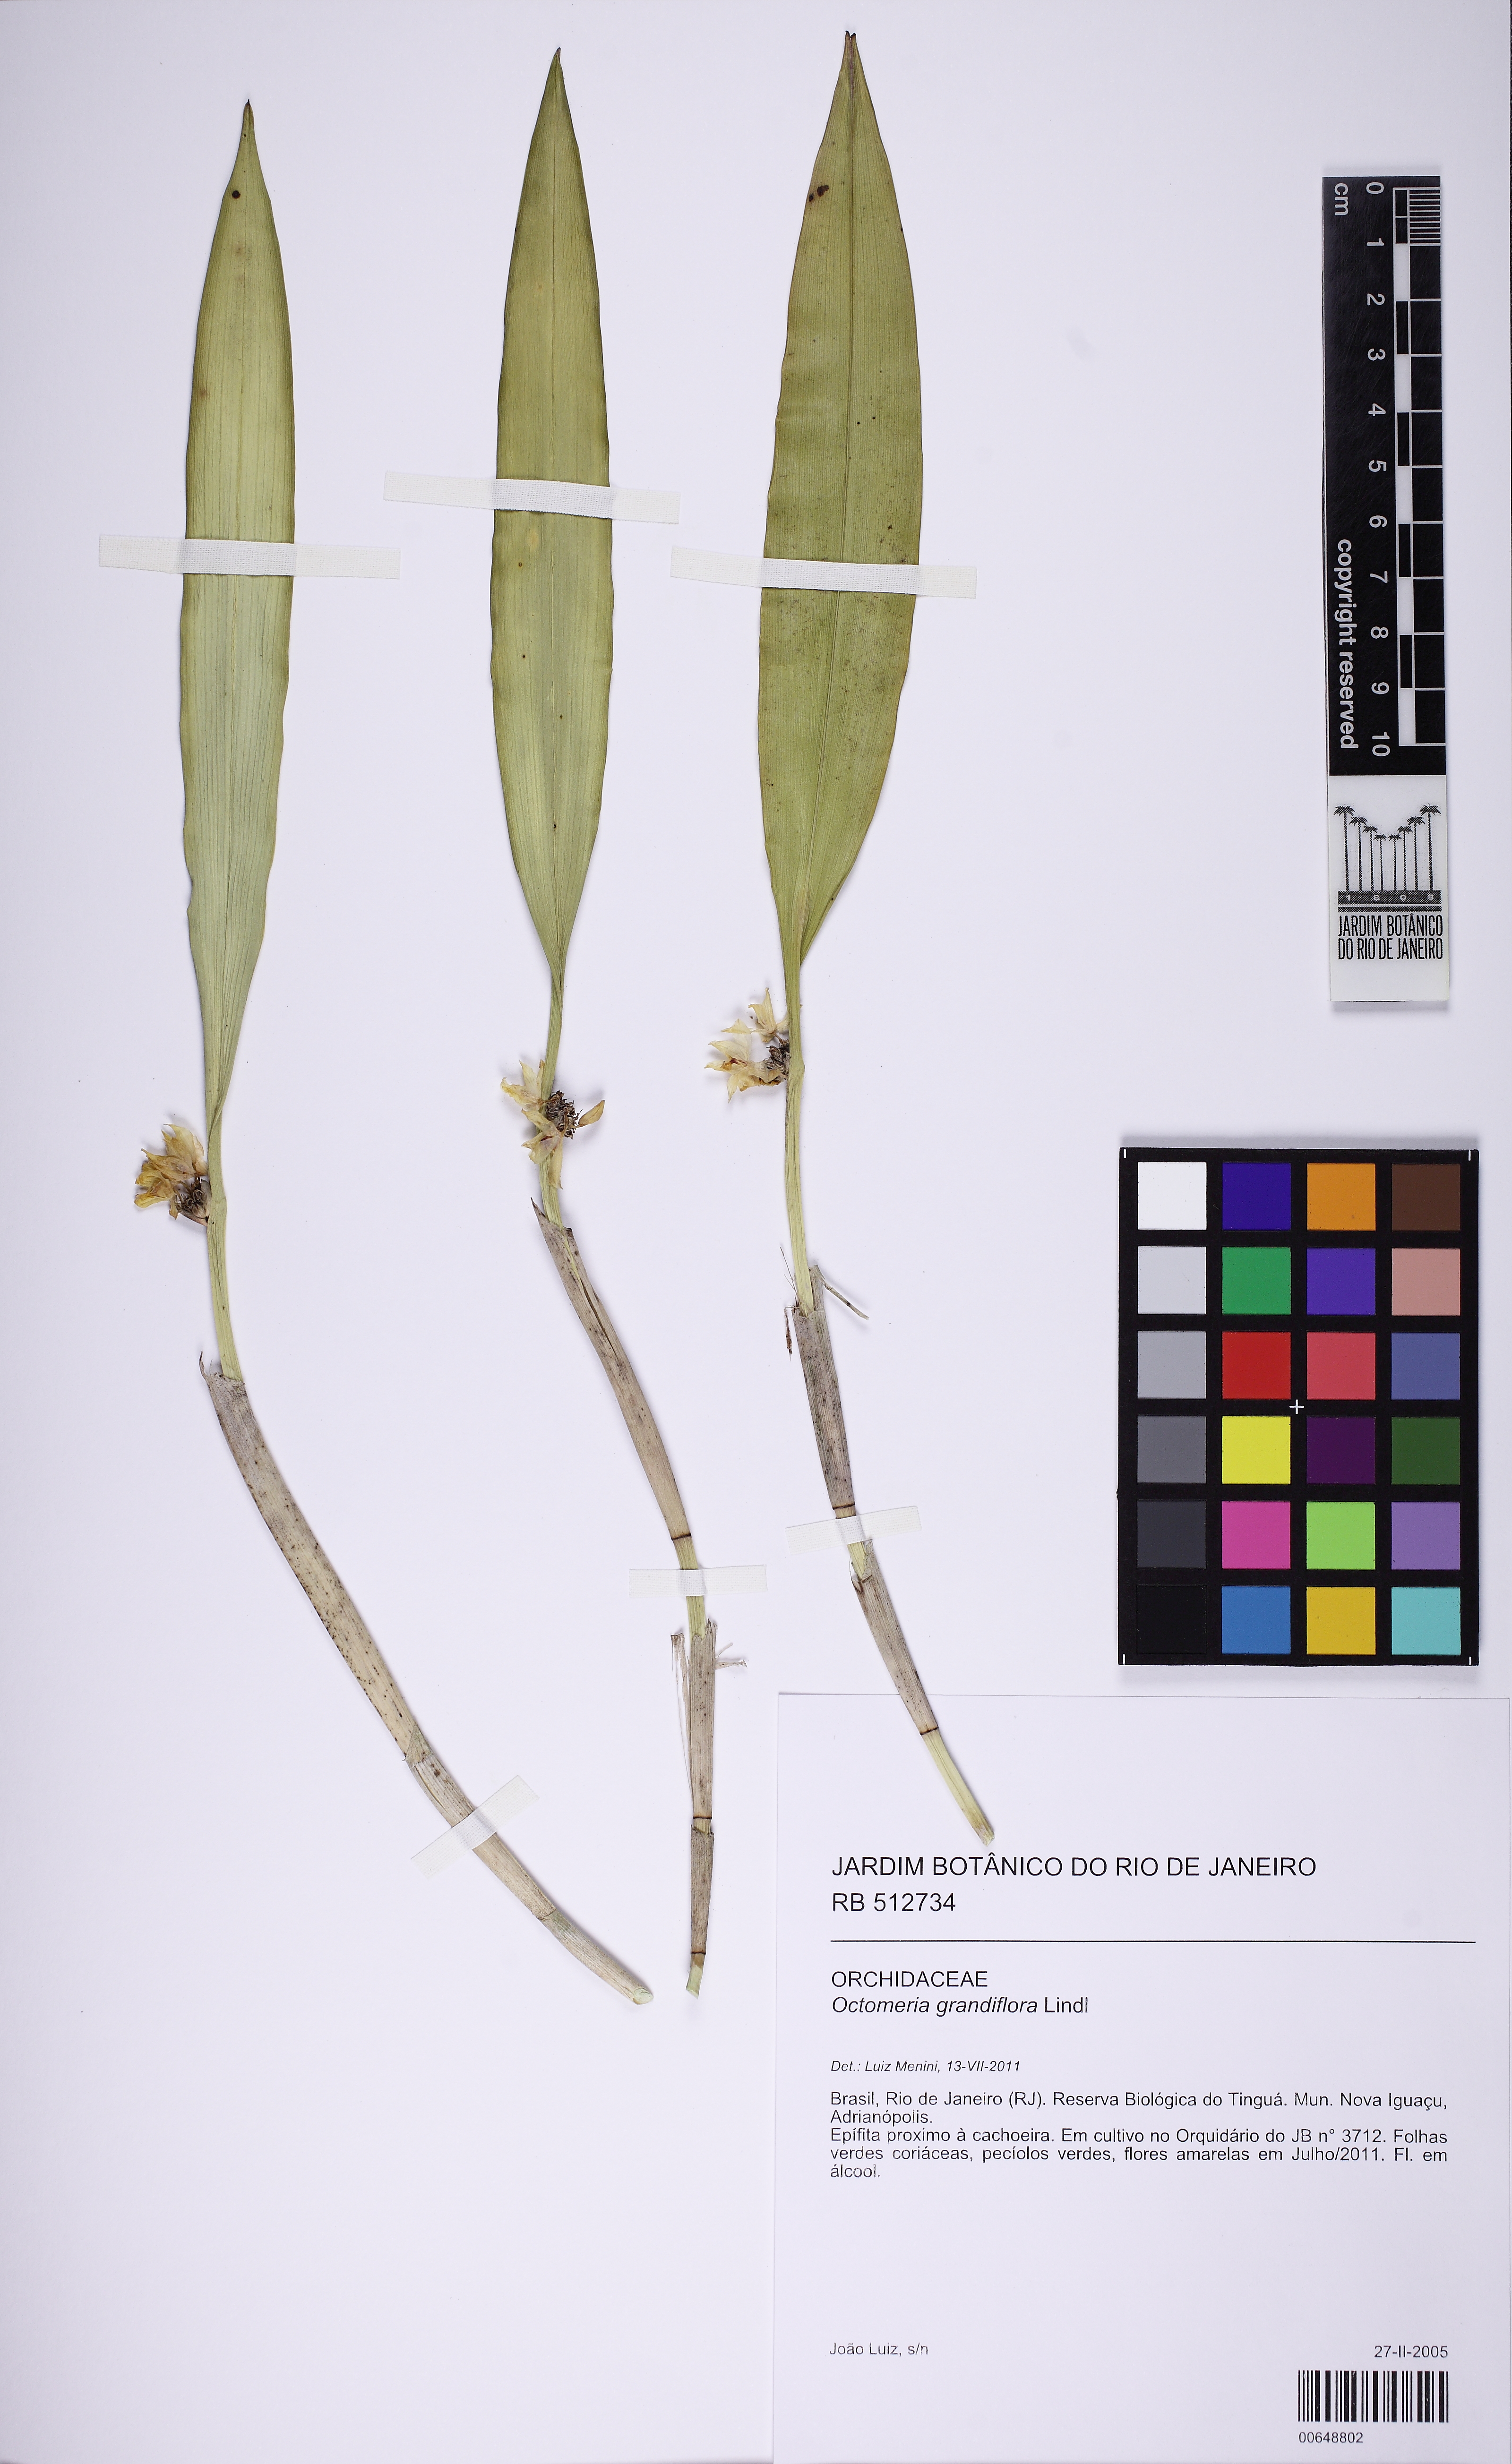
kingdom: Plantae
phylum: Tracheophyta
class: Liliopsida
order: Asparagales
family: Orchidaceae
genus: Octomeria
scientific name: Octomeria grandiflora
